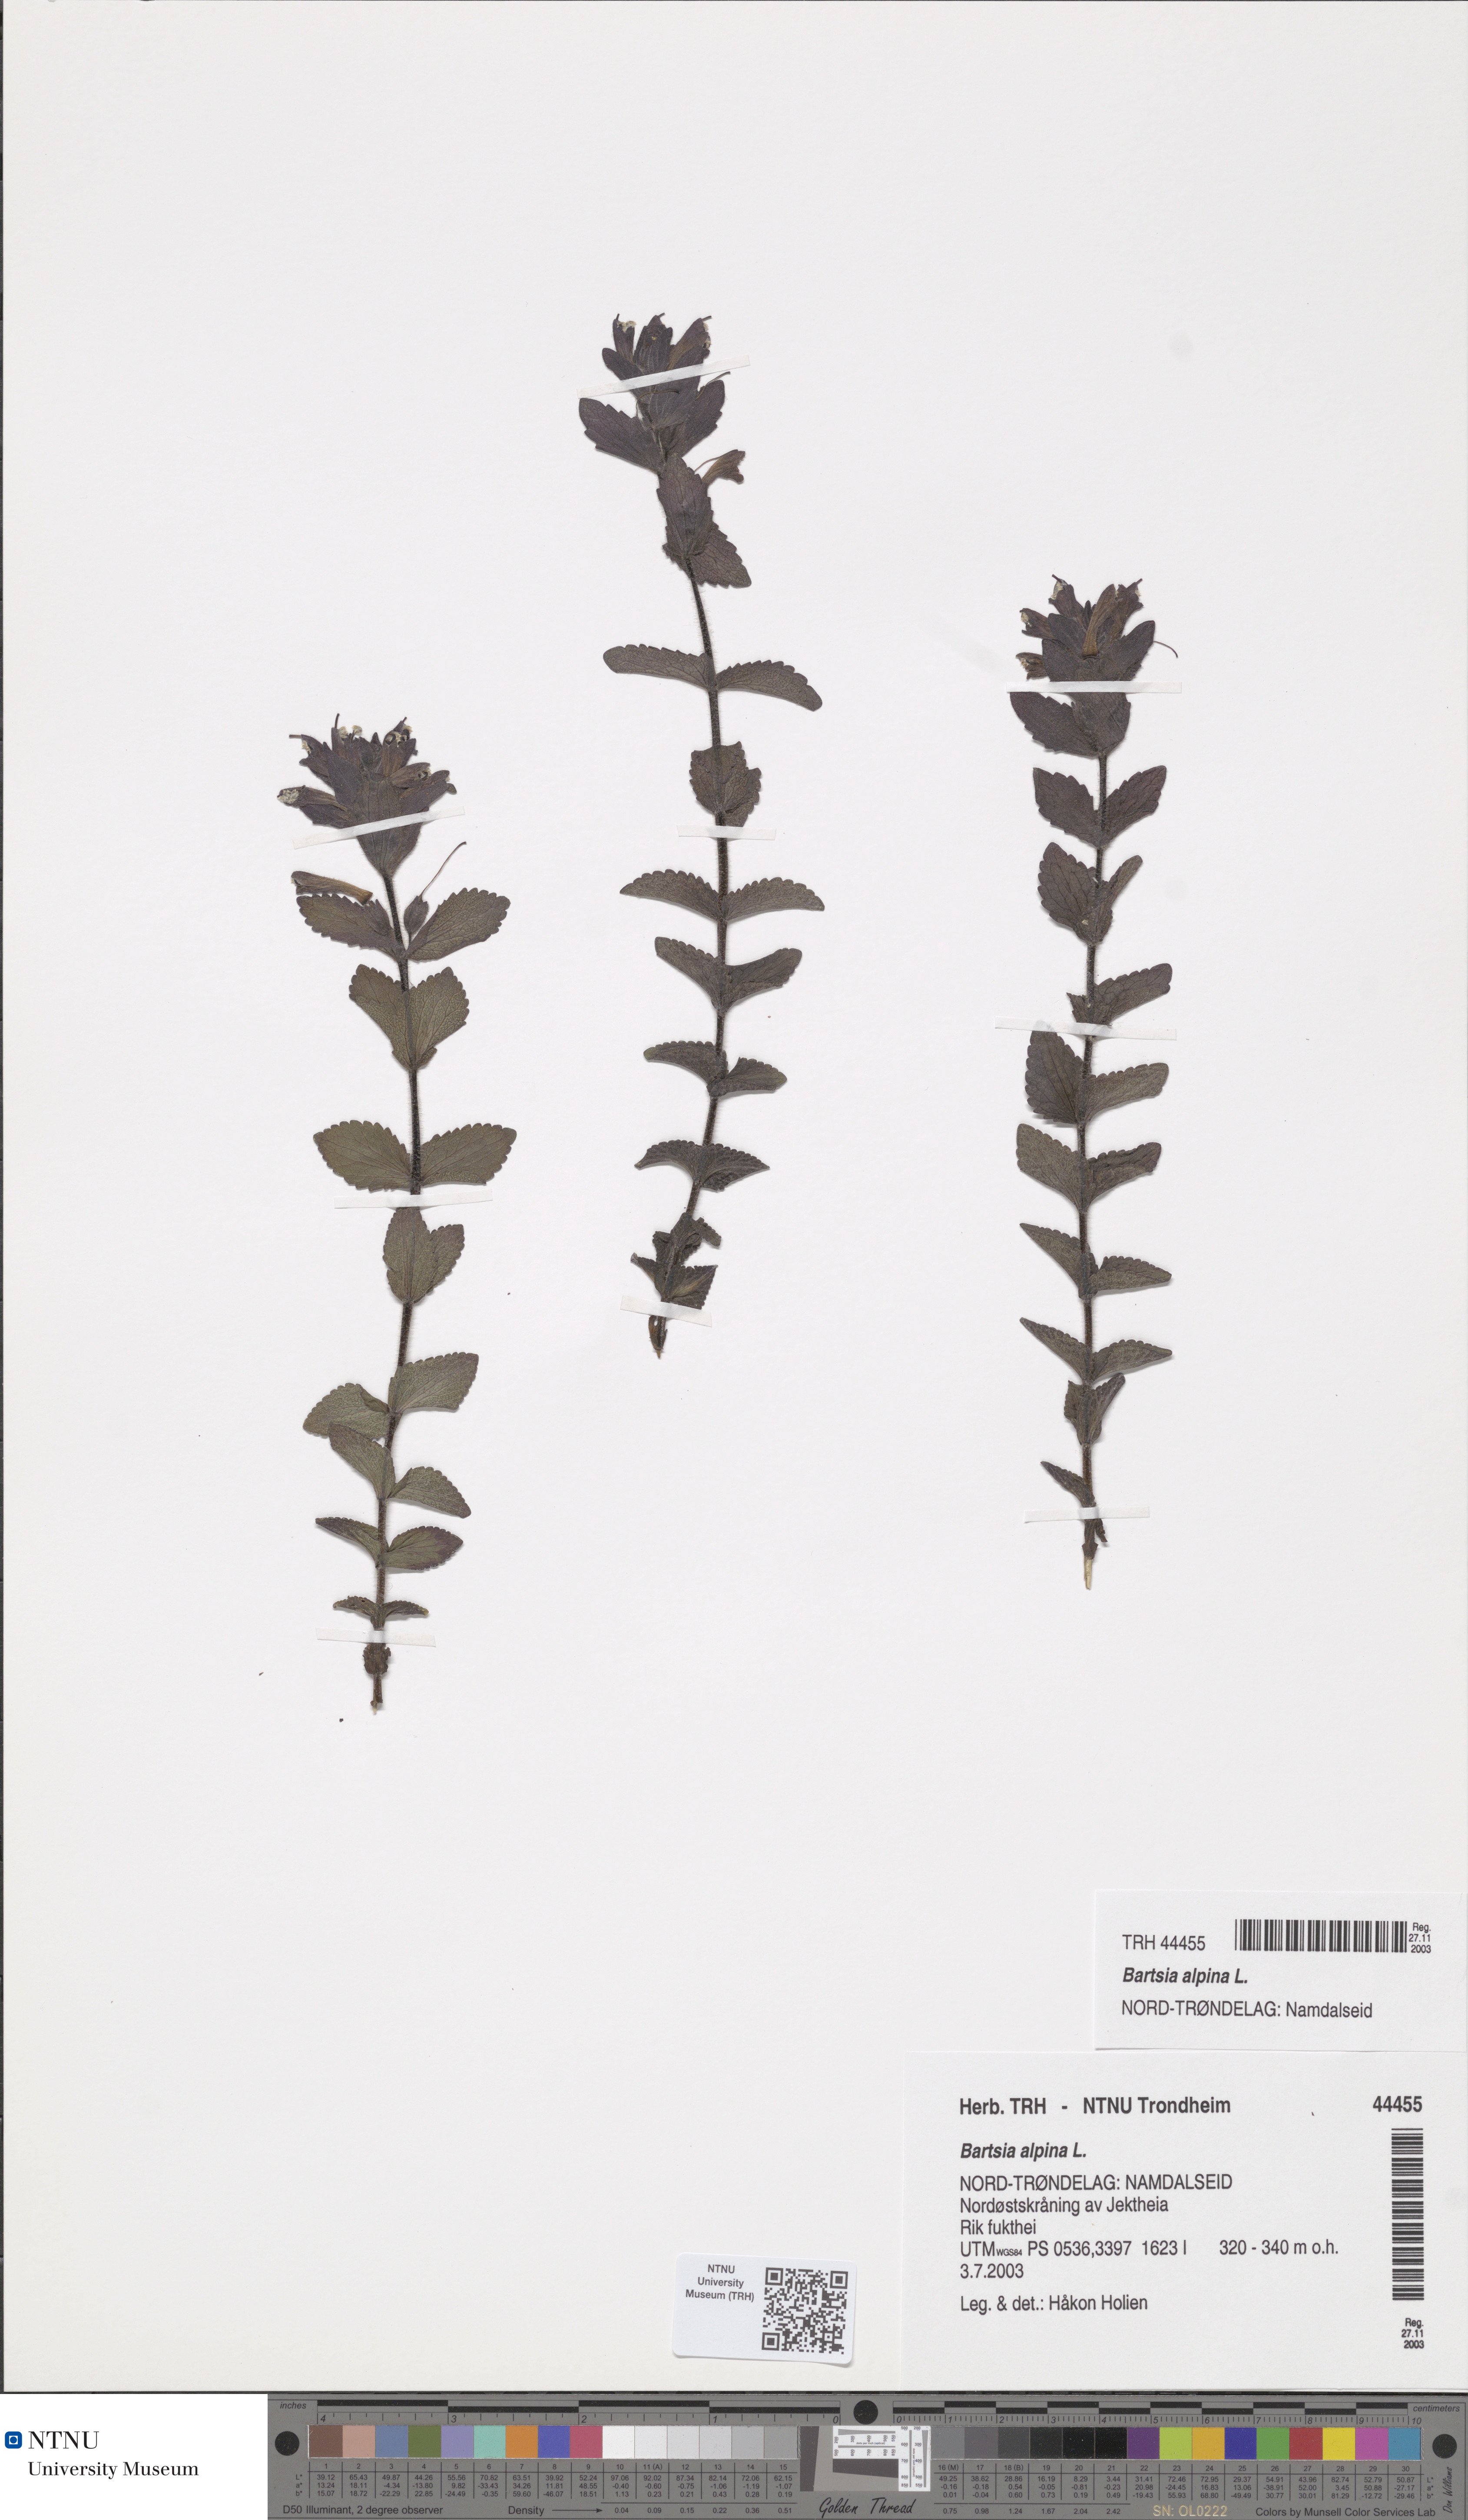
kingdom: Plantae
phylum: Tracheophyta
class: Magnoliopsida
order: Lamiales
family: Orobanchaceae
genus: Bartsia
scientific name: Bartsia alpina
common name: Alpine bartsia
